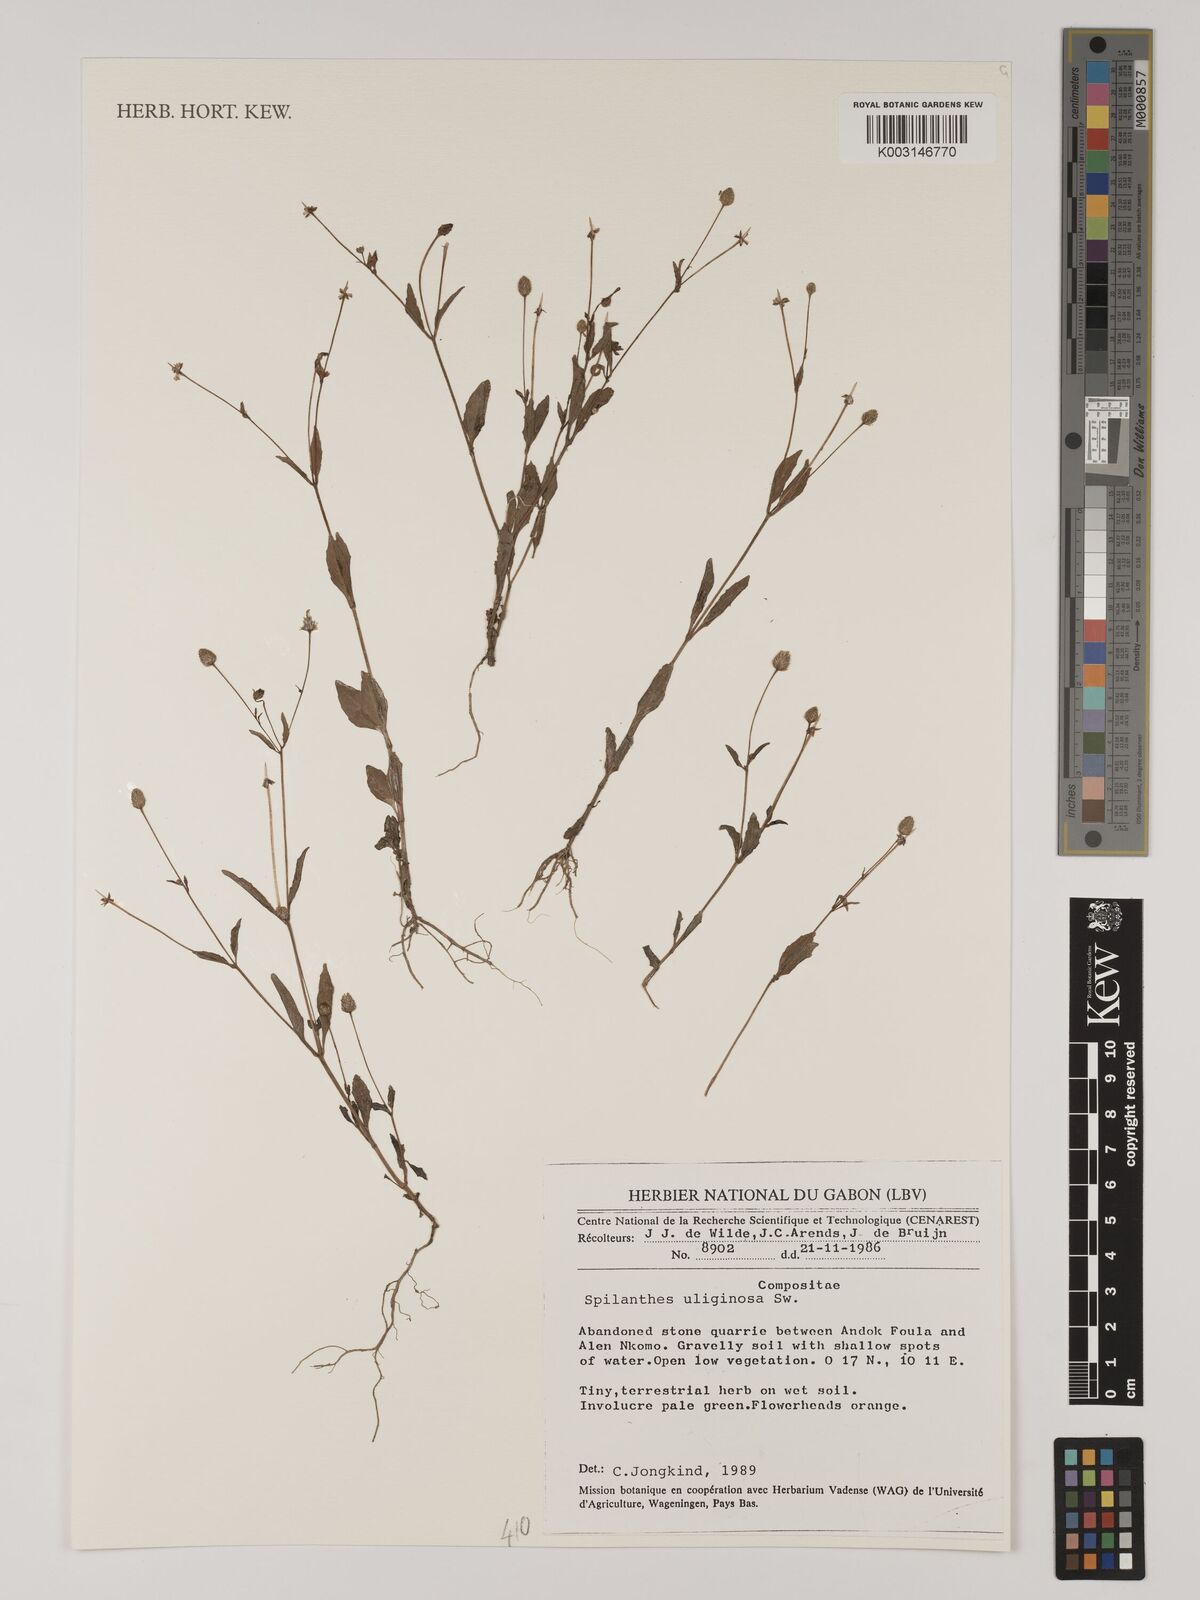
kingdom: Plantae
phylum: Tracheophyta
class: Magnoliopsida
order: Asterales
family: Asteraceae
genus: Acmella
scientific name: Acmella uliginosa
